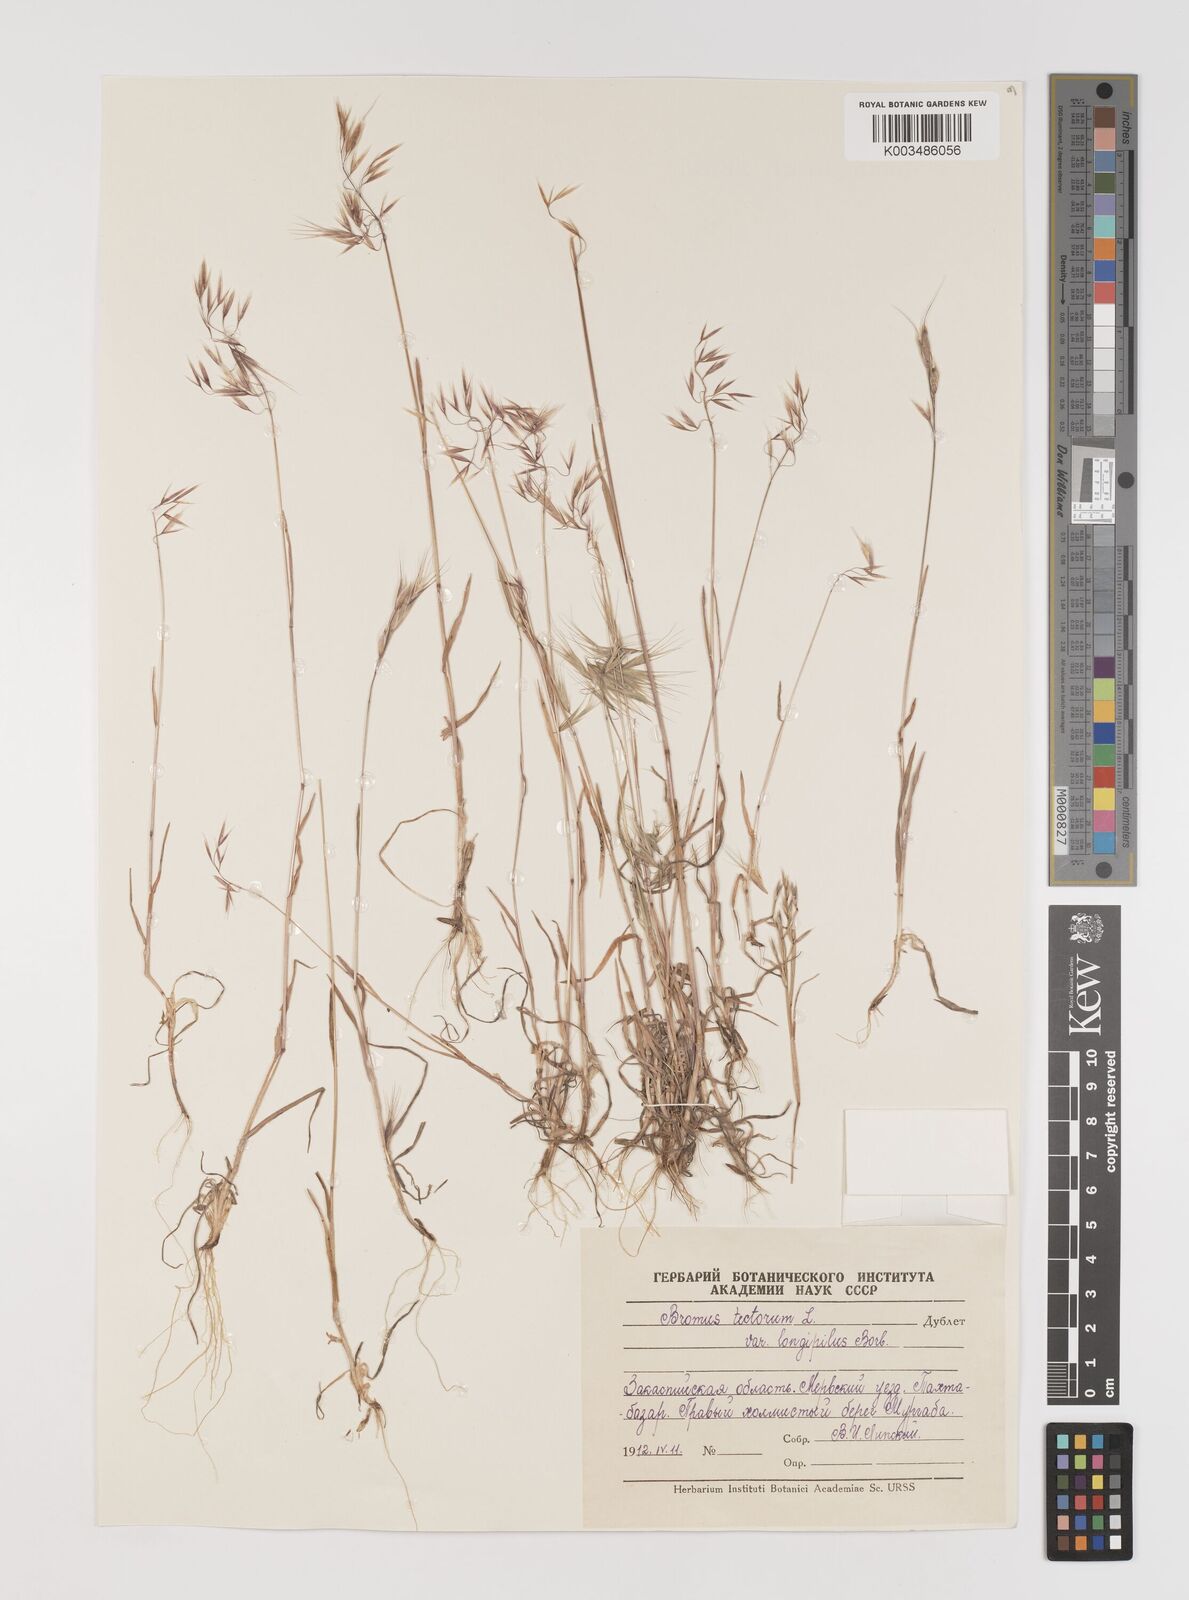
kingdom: Plantae
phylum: Tracheophyta
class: Liliopsida
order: Poales
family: Poaceae
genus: Bromus
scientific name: Bromus tectorum
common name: Cheatgrass
